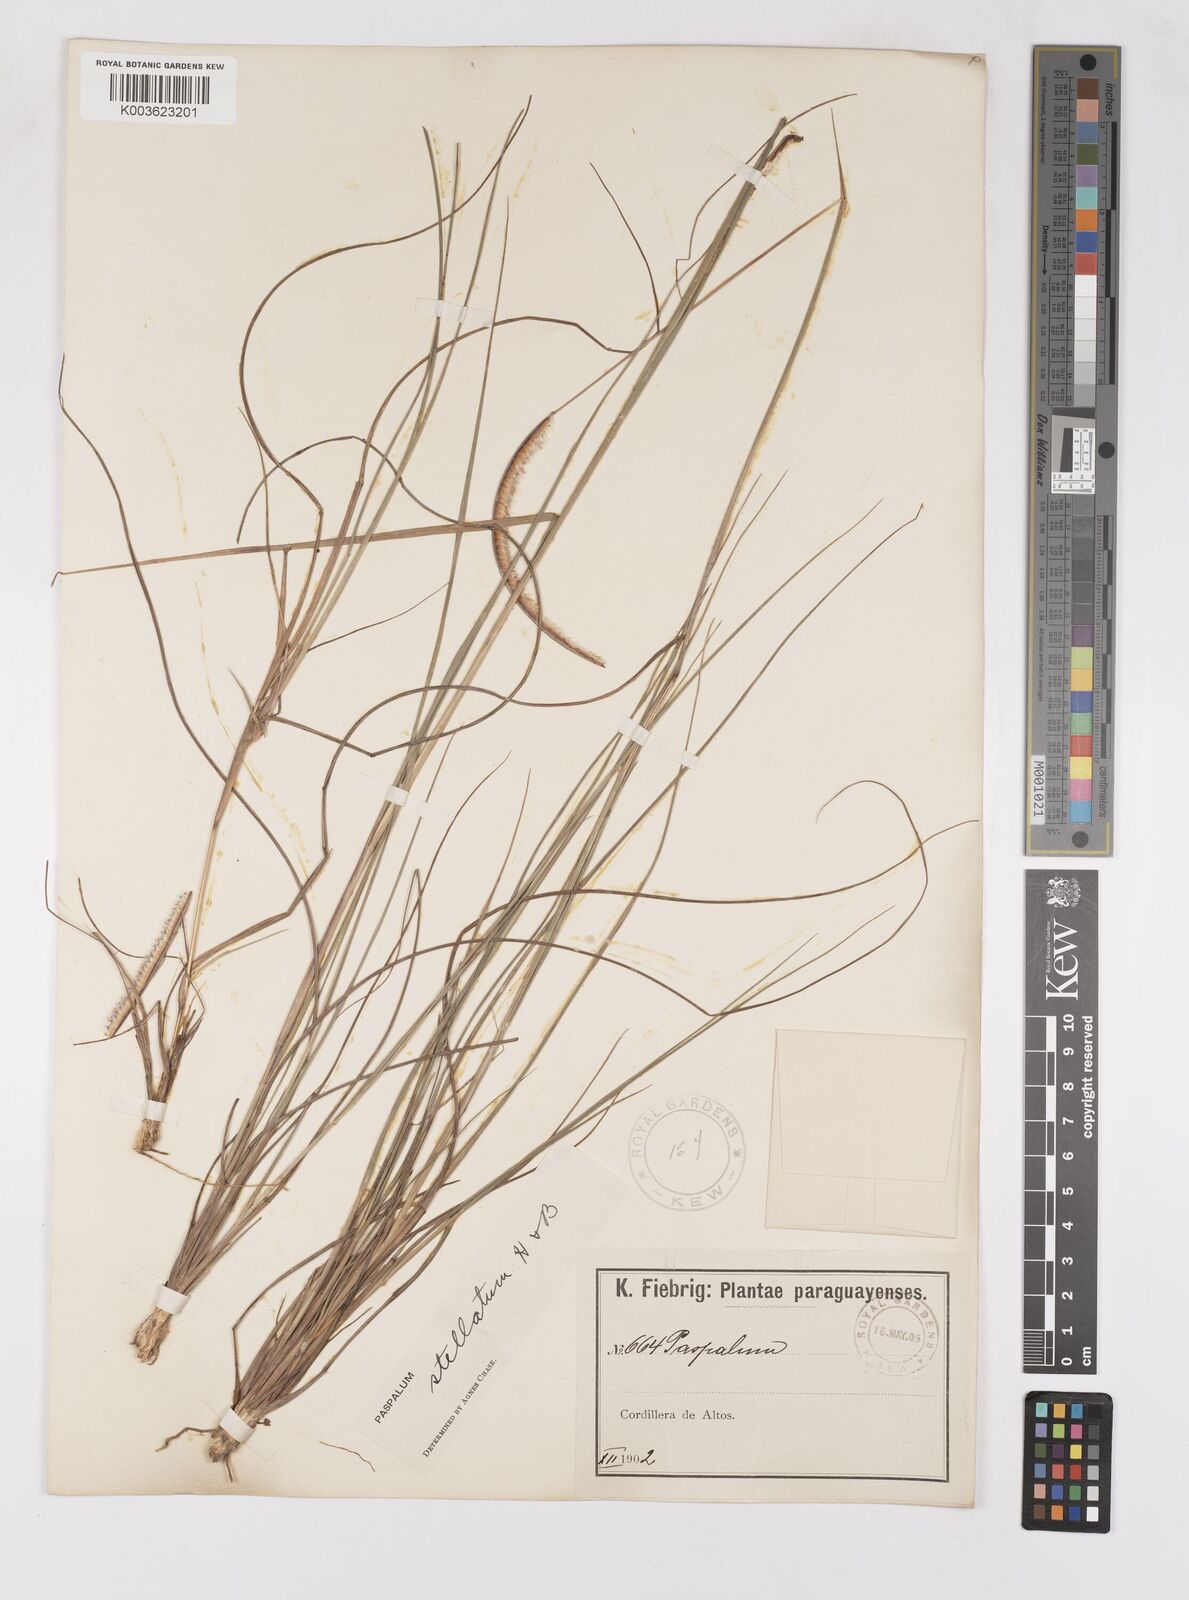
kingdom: Plantae
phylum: Tracheophyta
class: Liliopsida
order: Poales
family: Poaceae
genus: Paspalum
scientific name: Paspalum stellatum
